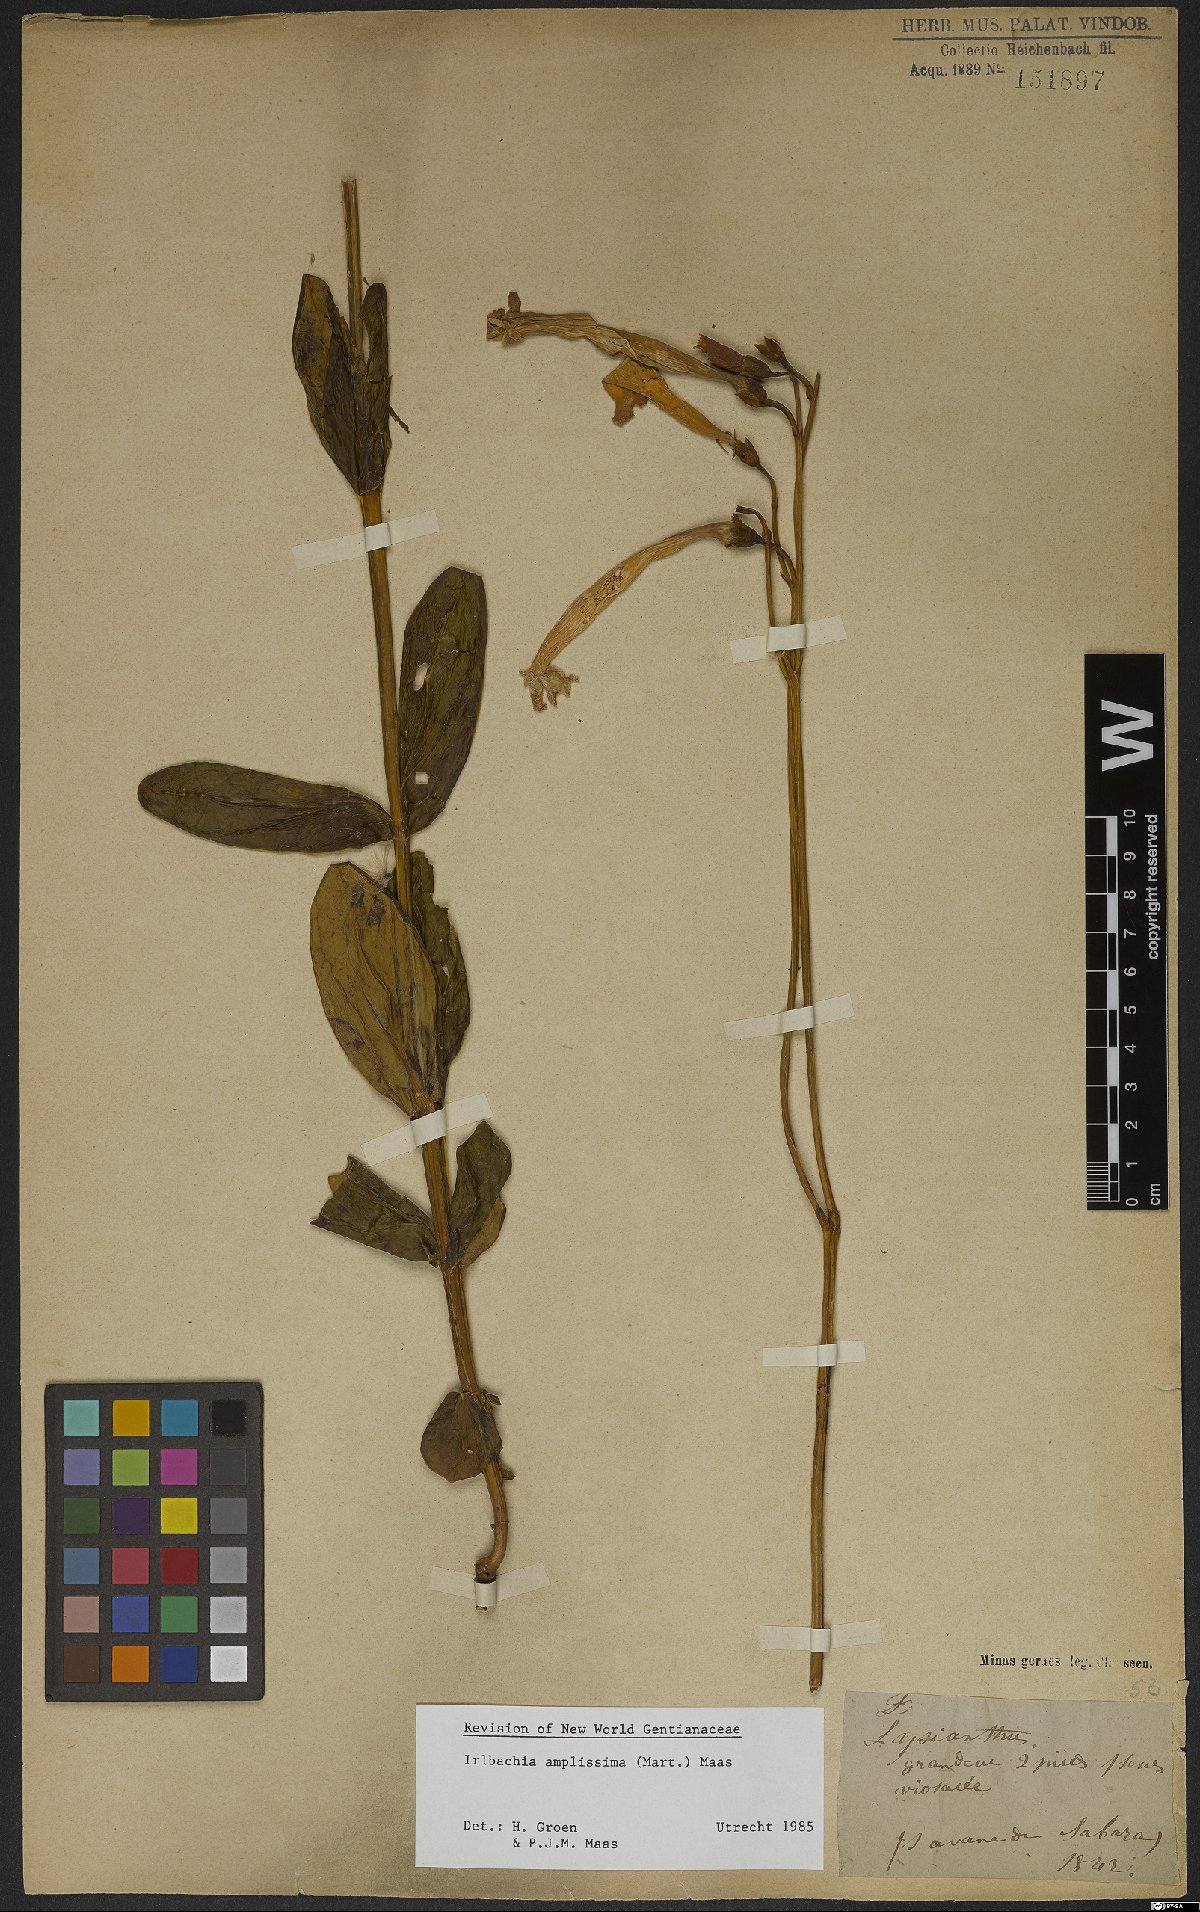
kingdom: Plantae
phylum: Tracheophyta
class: Magnoliopsida
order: Gentianales
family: Gentianaceae
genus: Calolisianthus
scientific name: Calolisianthus amplissimus
